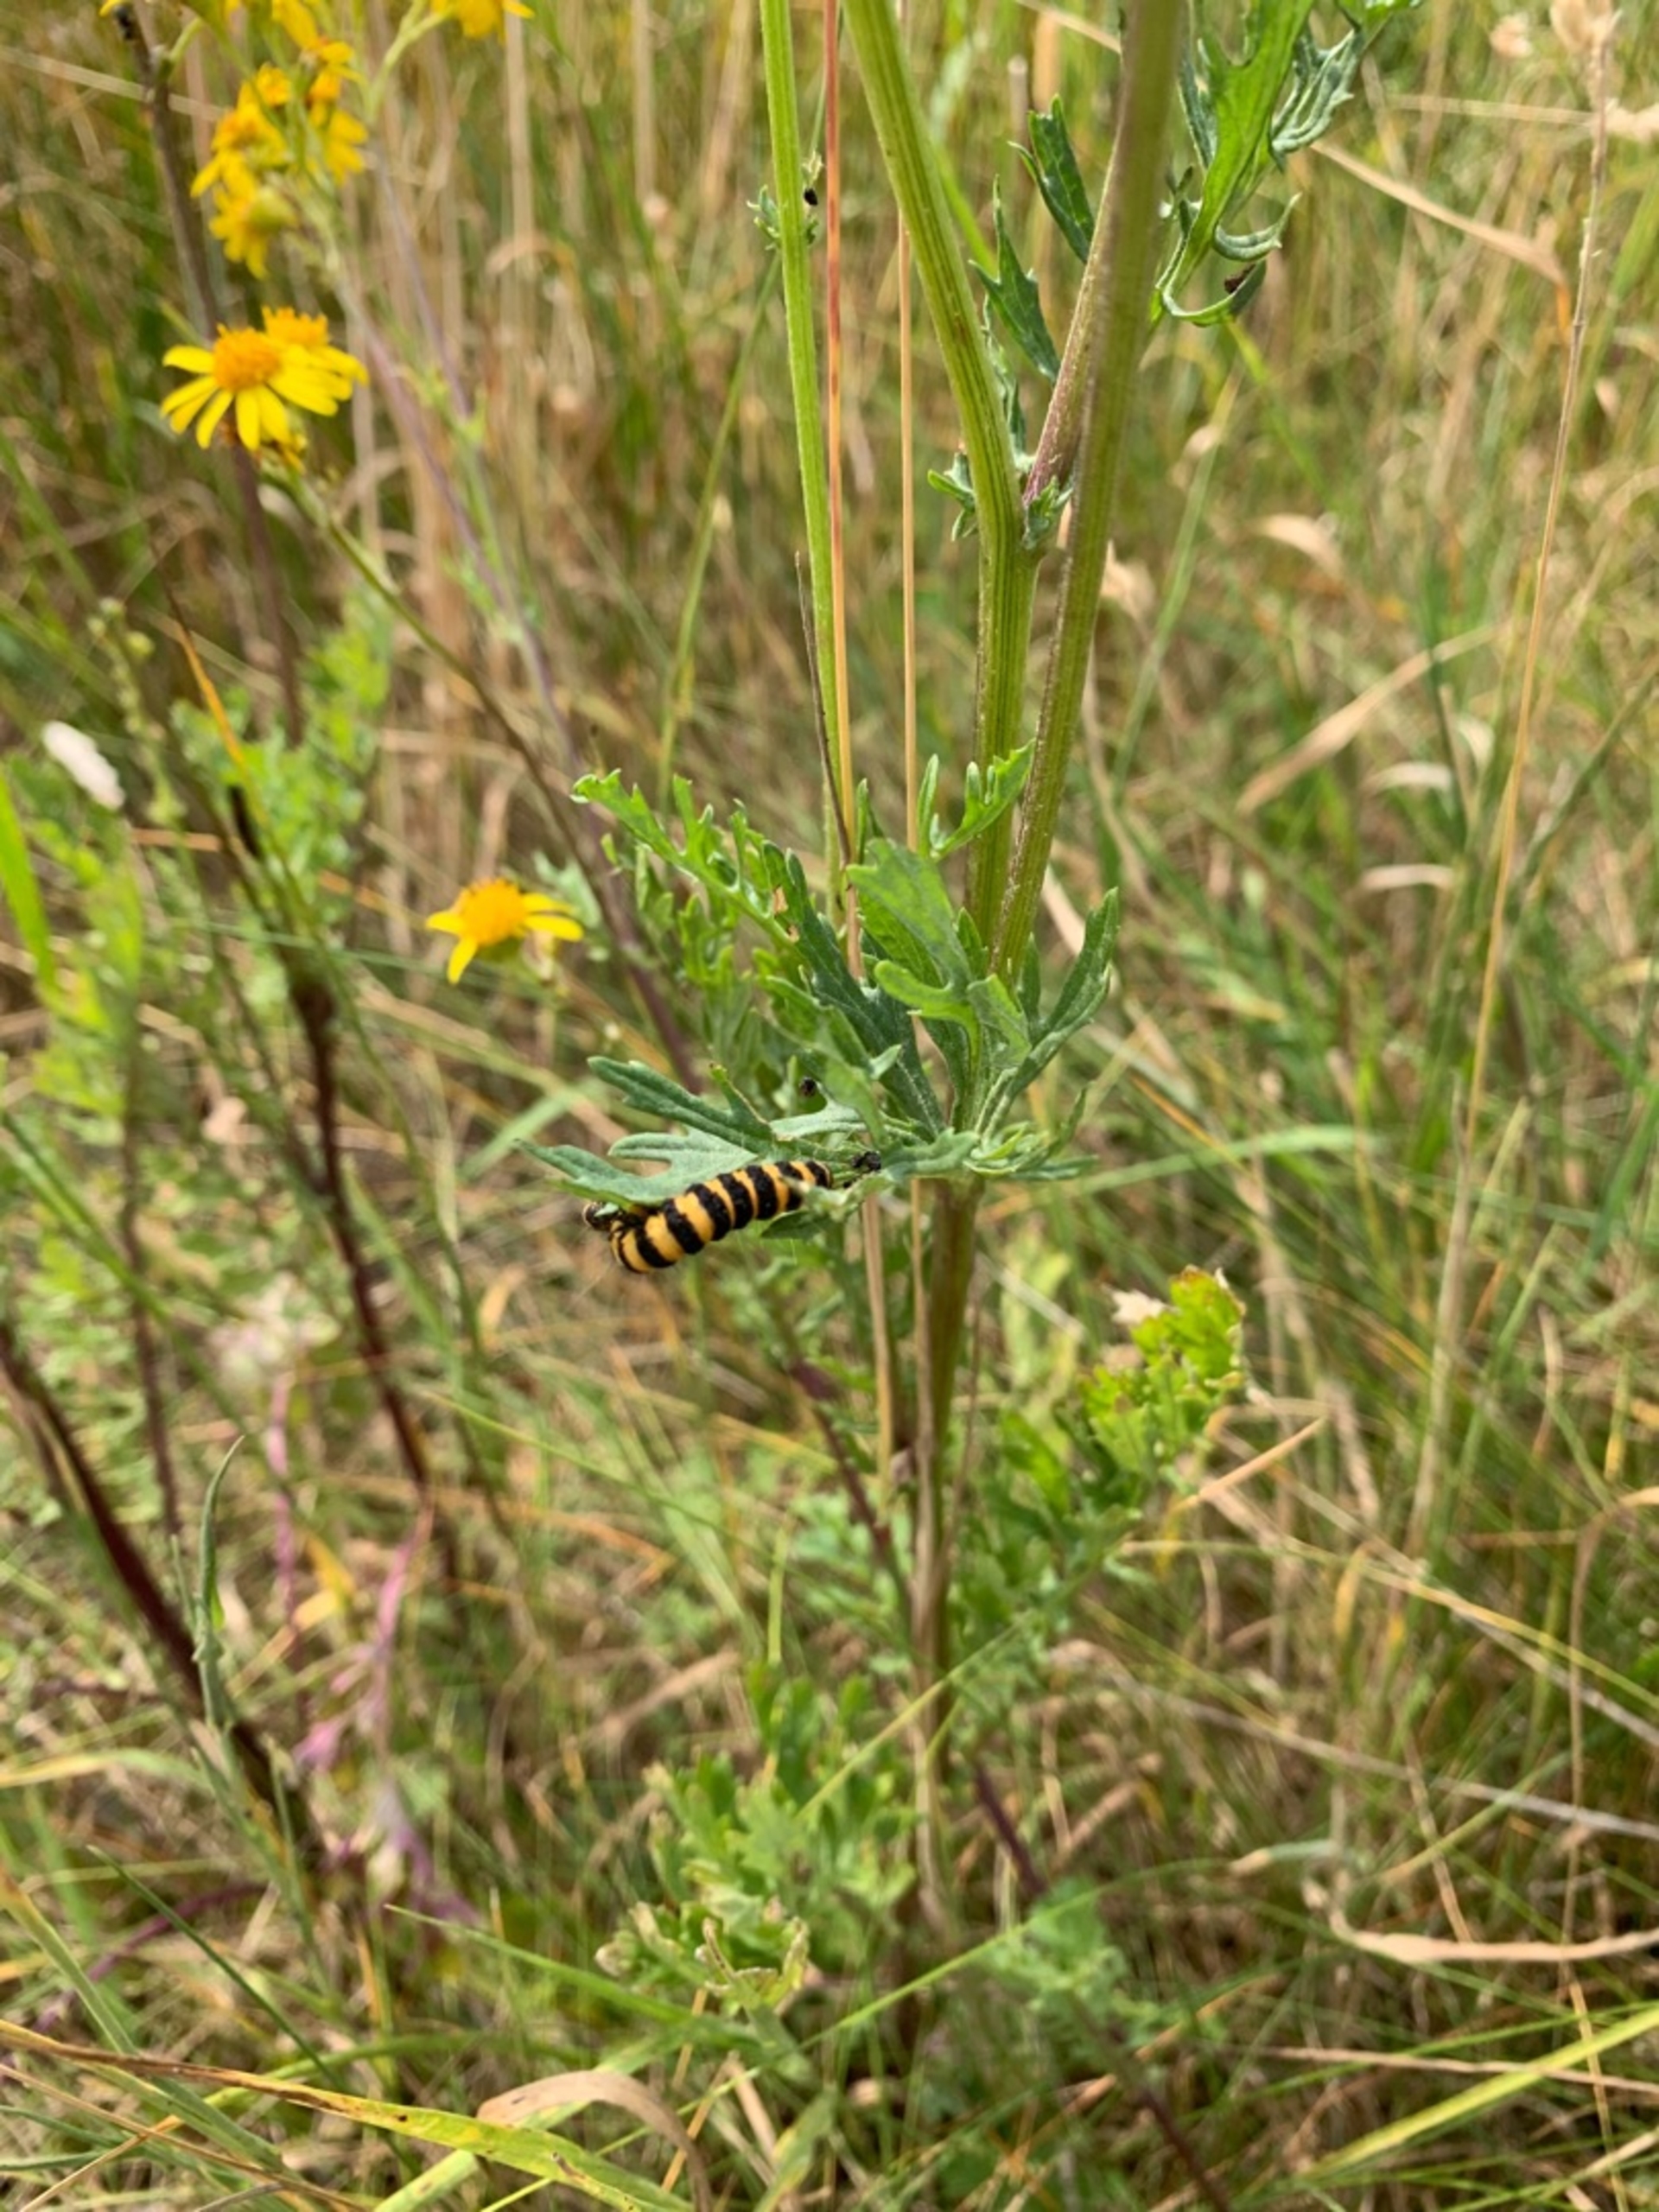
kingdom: Animalia
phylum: Arthropoda
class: Insecta
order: Lepidoptera
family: Erebidae
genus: Tyria
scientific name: Tyria jacobaeae
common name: Blodplet
